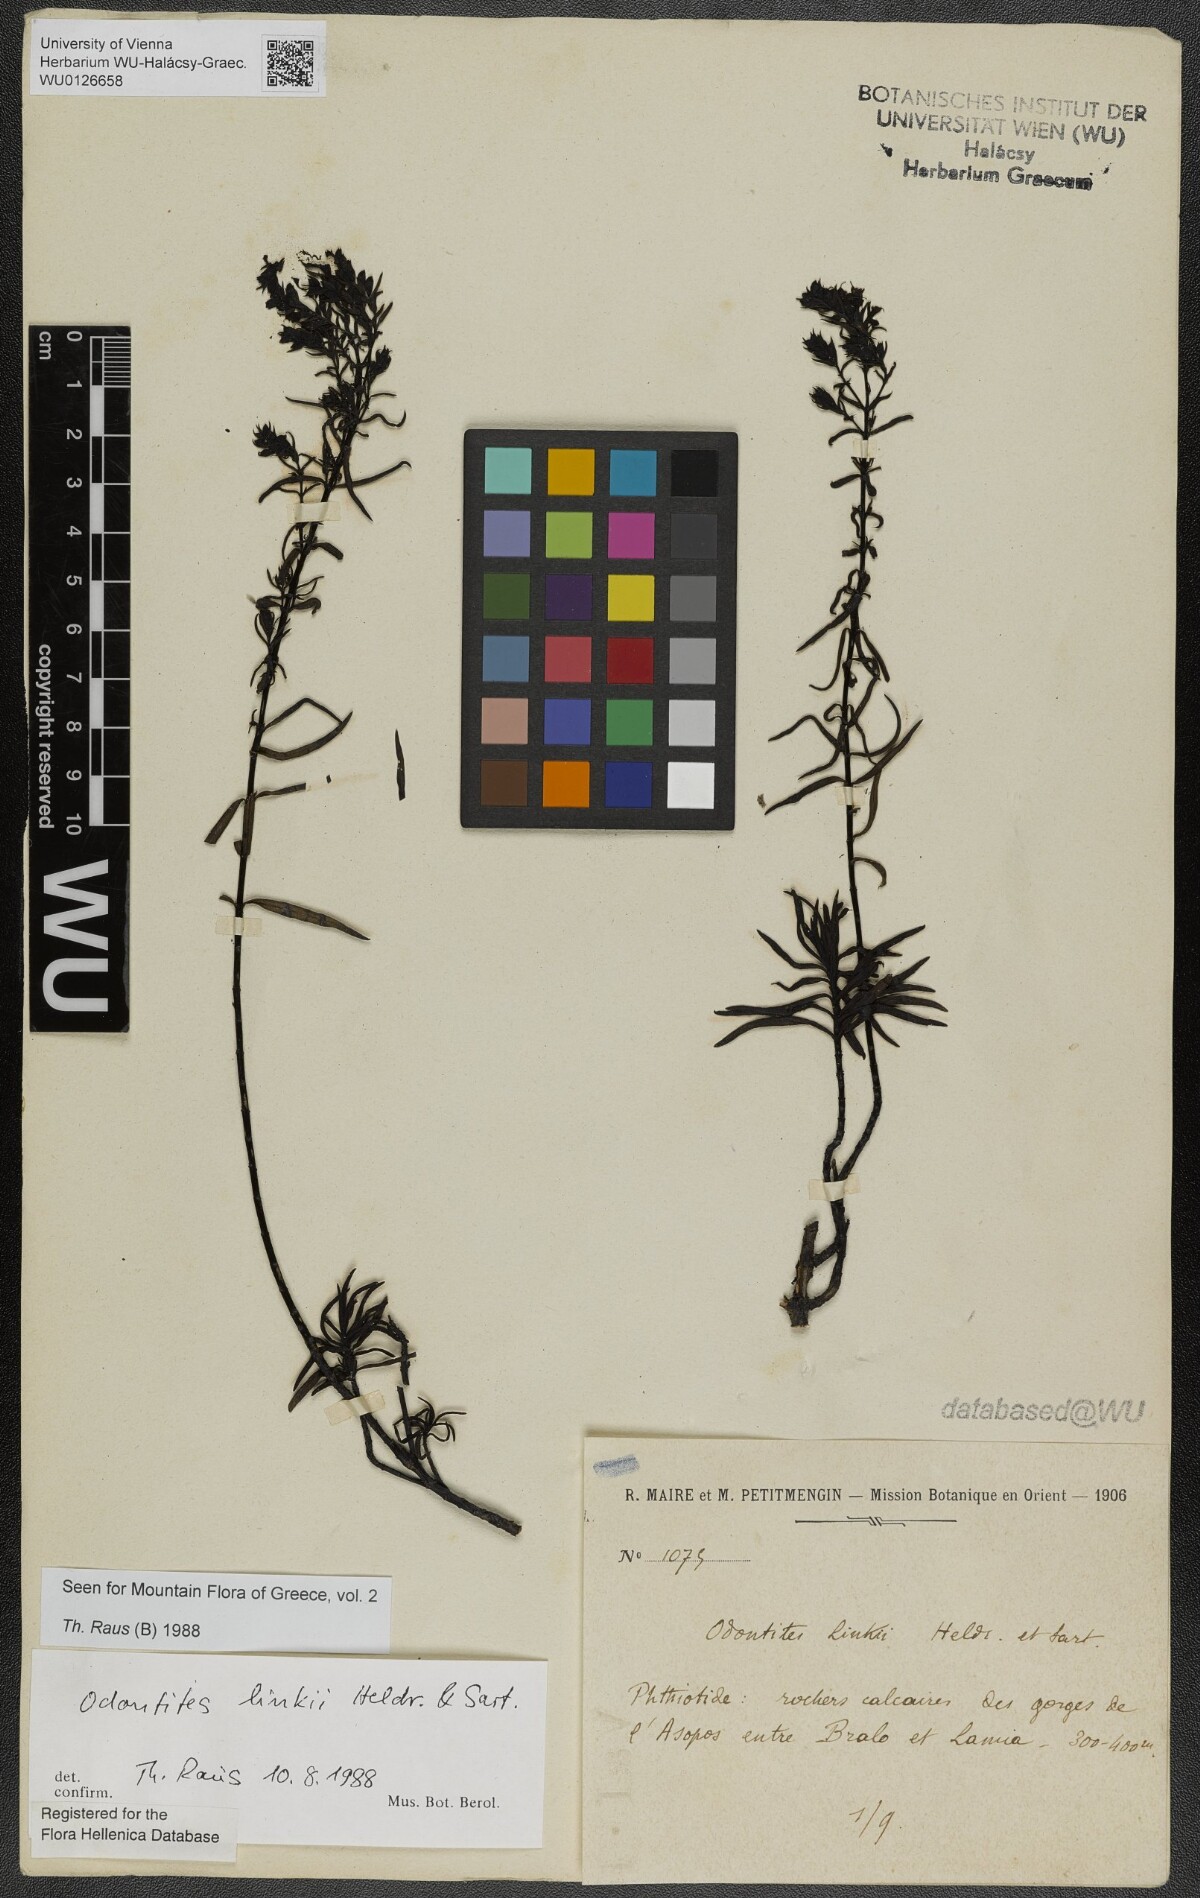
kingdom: Plantae
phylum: Tracheophyta
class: Magnoliopsida
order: Lamiales
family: Scrophulariaceae
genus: Odontites
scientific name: Odontites linkii
